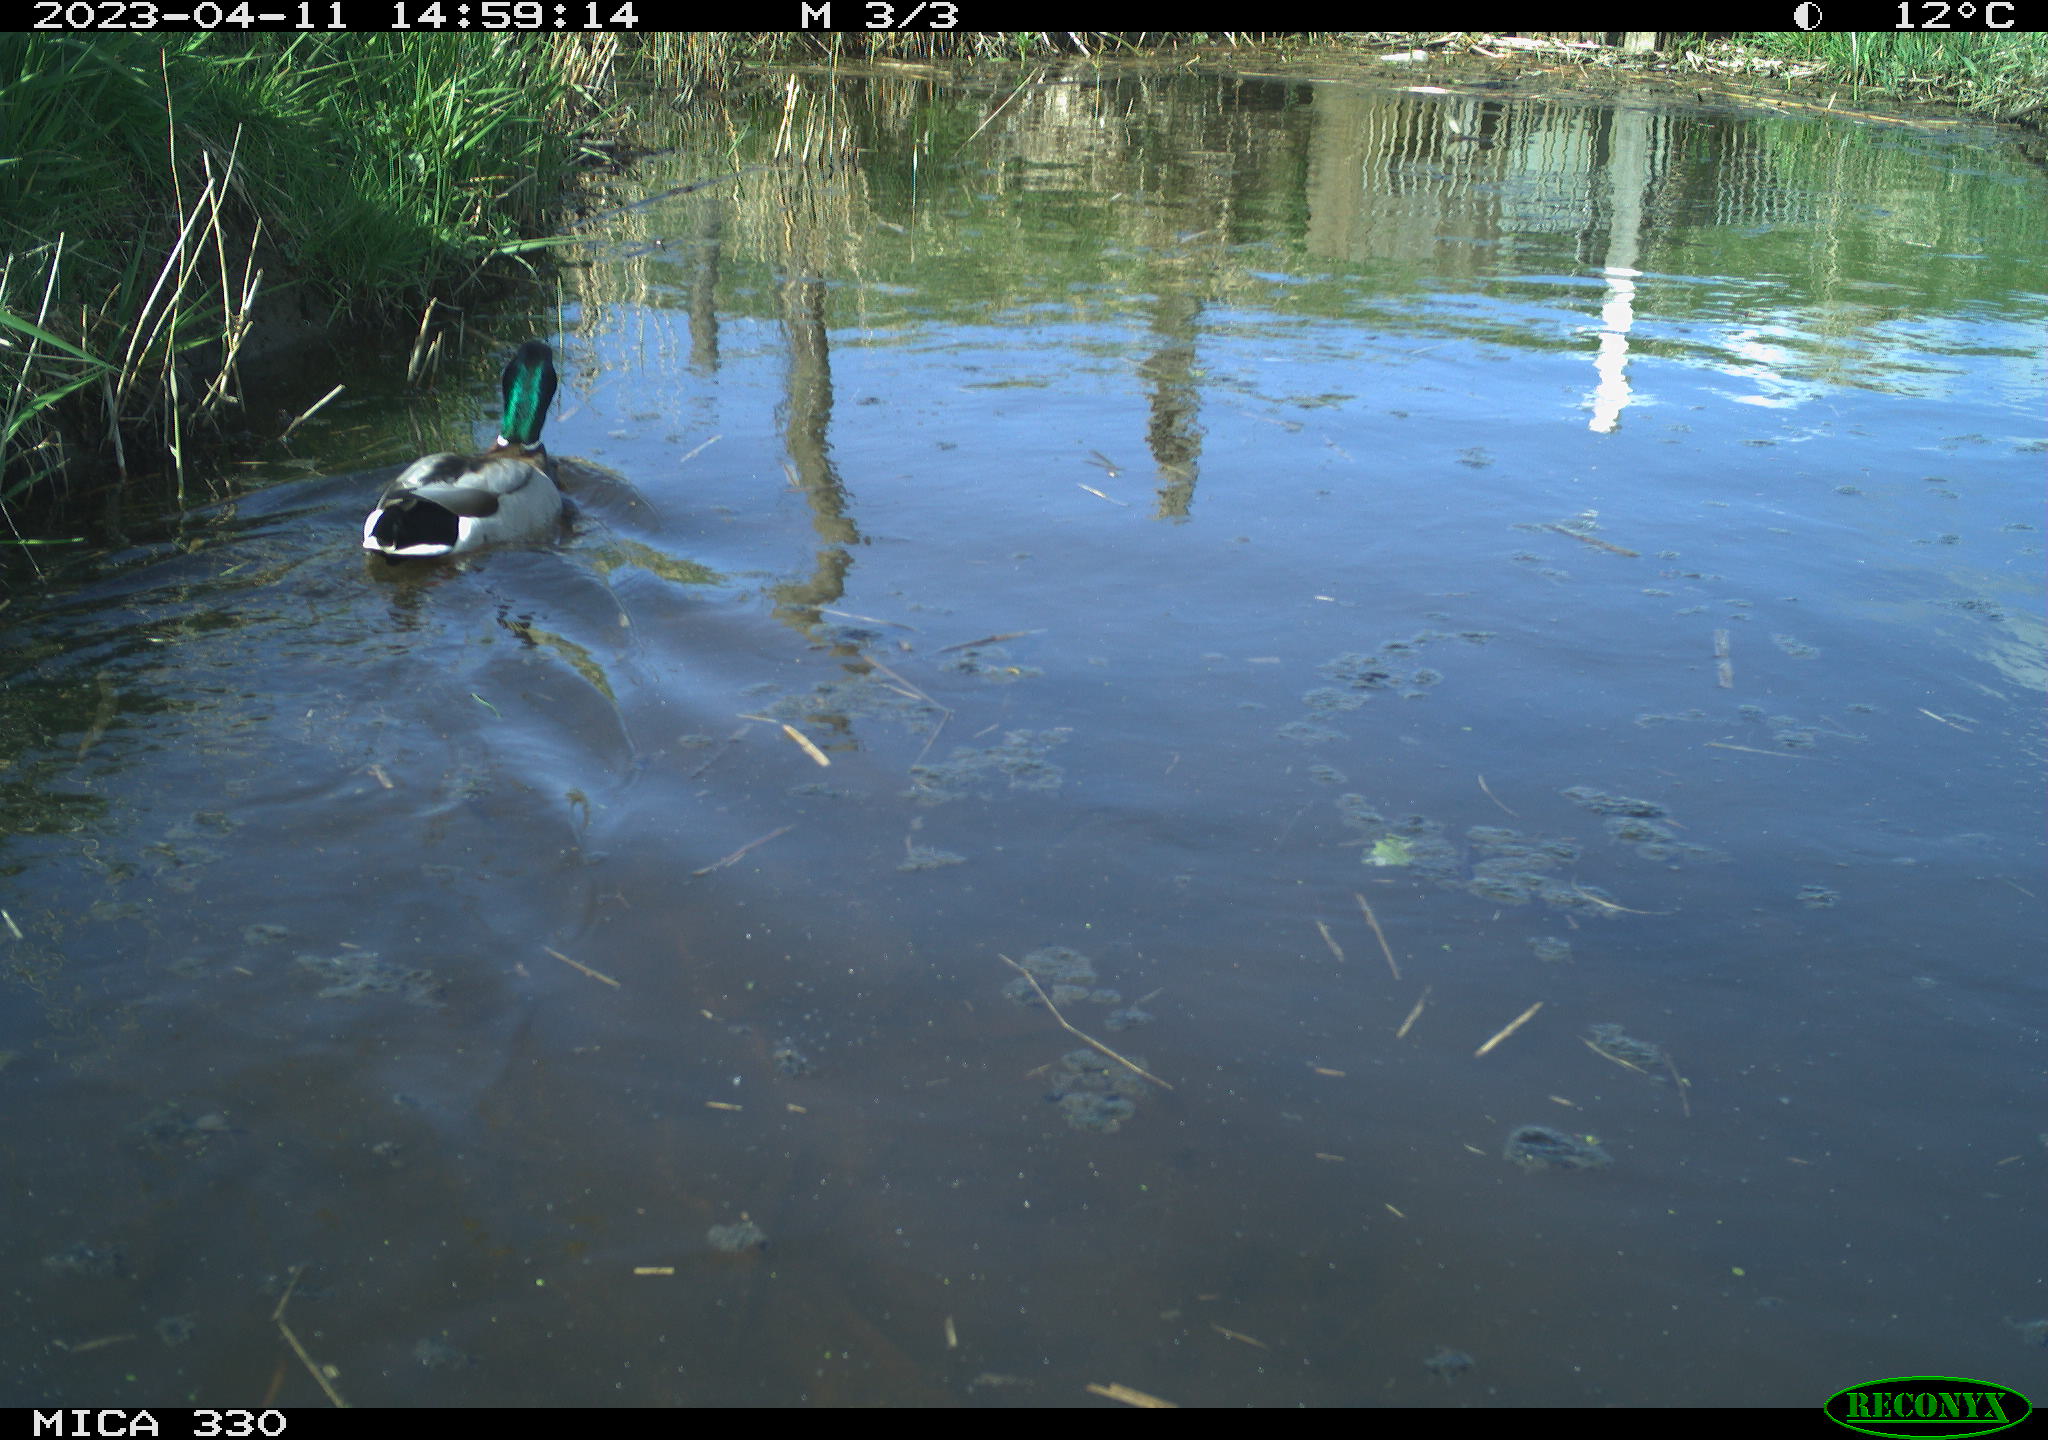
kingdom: Animalia
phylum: Chordata
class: Aves
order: Anseriformes
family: Anatidae
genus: Anas
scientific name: Anas
